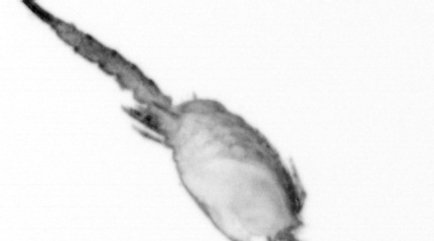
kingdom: Animalia
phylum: Annelida
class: Polychaeta
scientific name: Polychaeta
